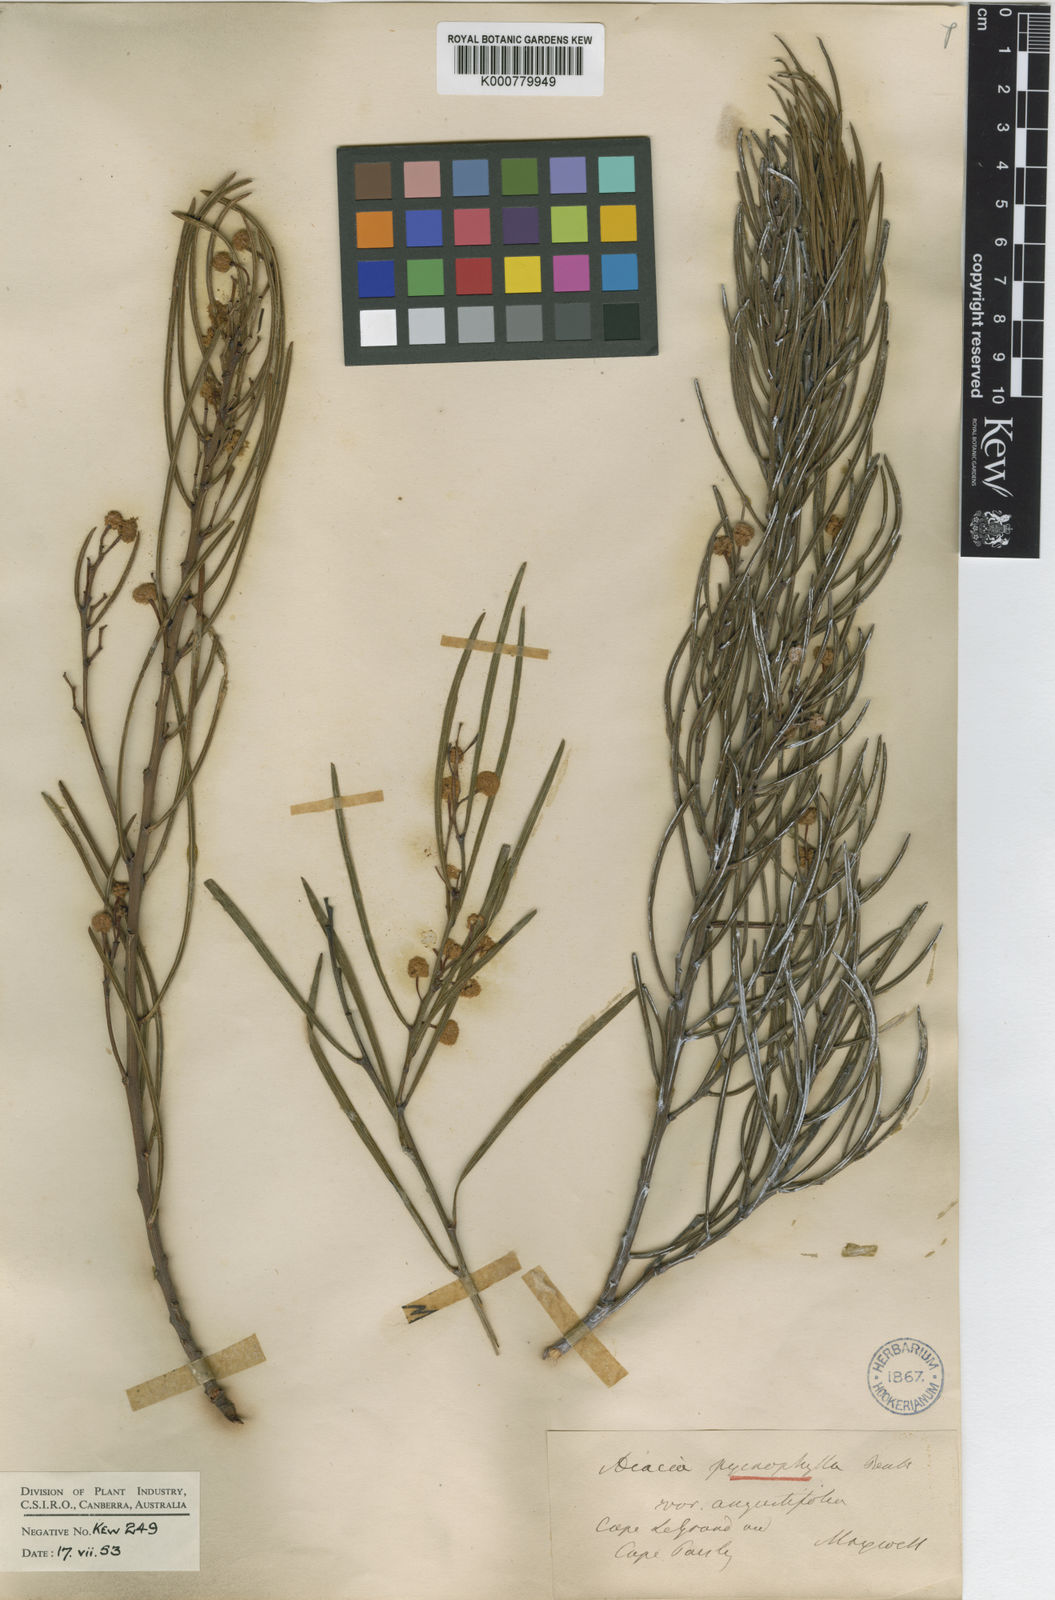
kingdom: Plantae
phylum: Tracheophyta
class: Magnoliopsida
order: Fabales
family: Fabaceae
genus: Acacia
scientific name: Acacia crassiuscula
